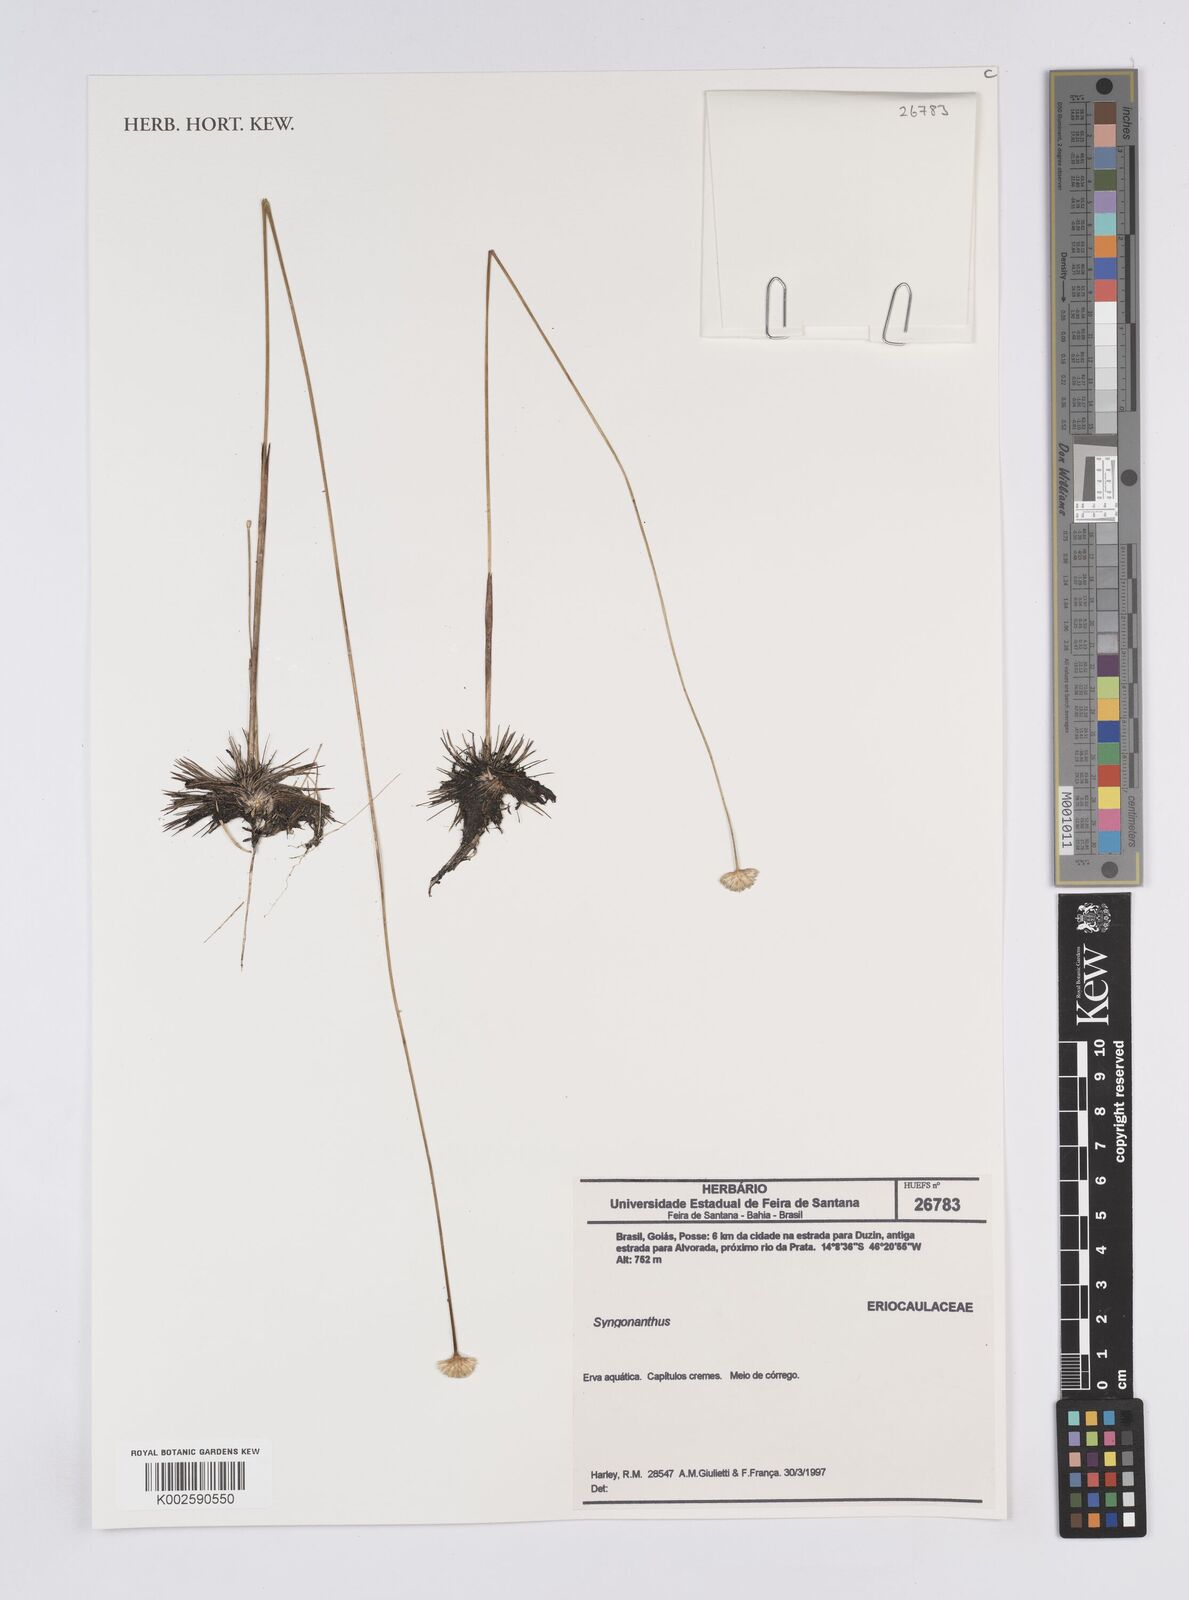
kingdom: Plantae
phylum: Tracheophyta
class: Liliopsida
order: Poales
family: Eriocaulaceae
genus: Syngonanthus
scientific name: Syngonanthus
